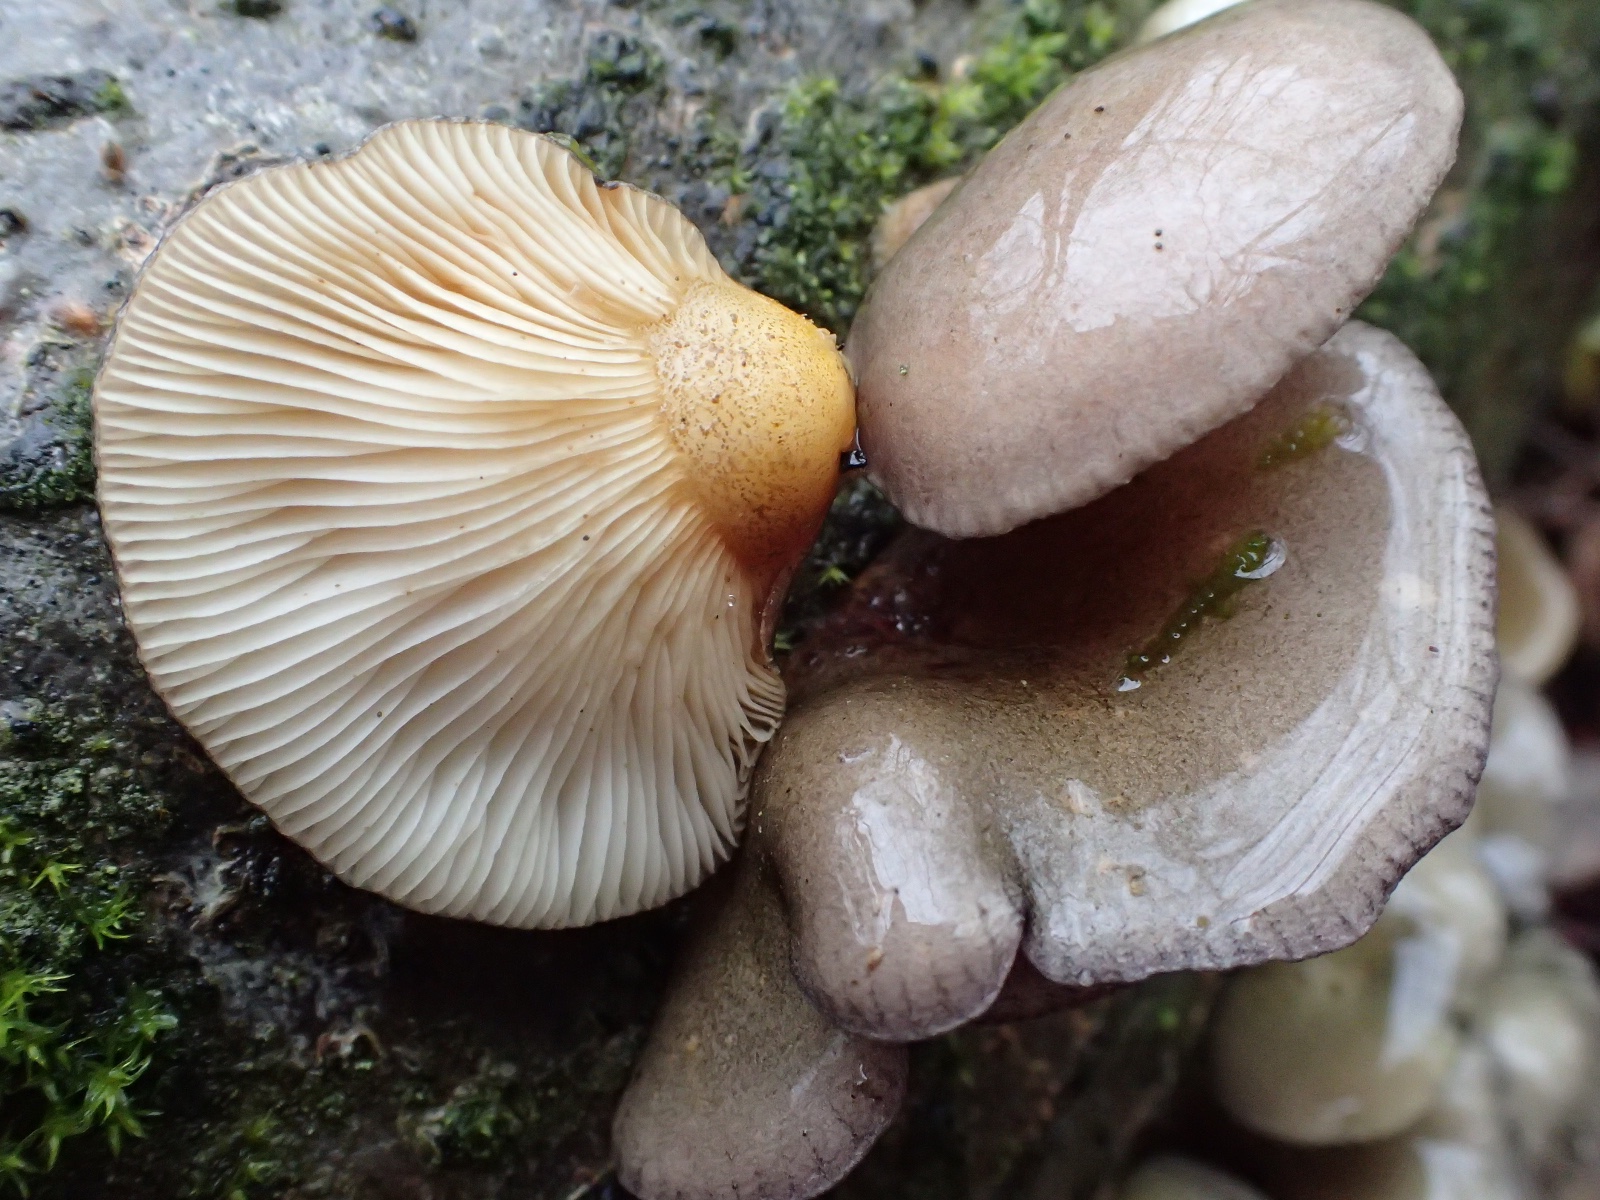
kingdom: Fungi
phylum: Basidiomycota
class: Agaricomycetes
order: Agaricales
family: Sarcomyxaceae
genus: Sarcomyxa
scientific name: Sarcomyxa serotina
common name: gummihat
